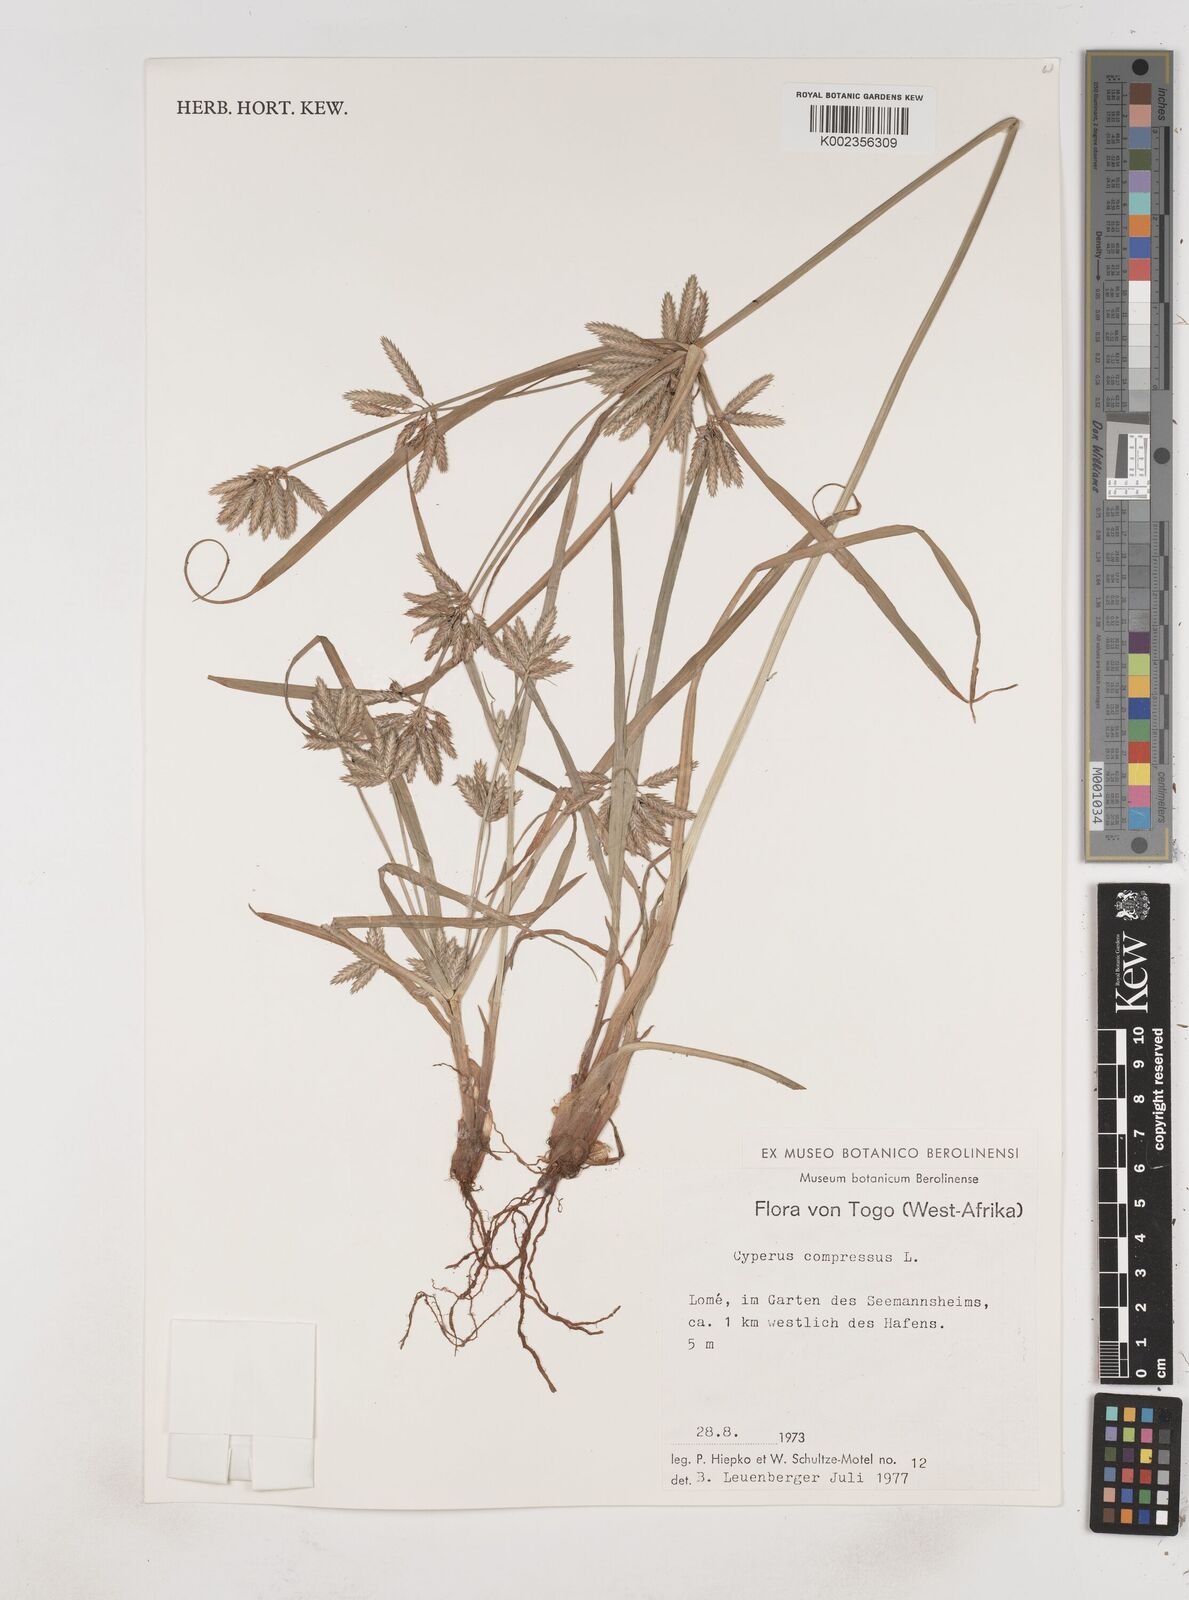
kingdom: Plantae
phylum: Tracheophyta
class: Liliopsida
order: Poales
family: Cyperaceae
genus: Cyperus
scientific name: Cyperus compressus
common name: Poorland flatsedge
